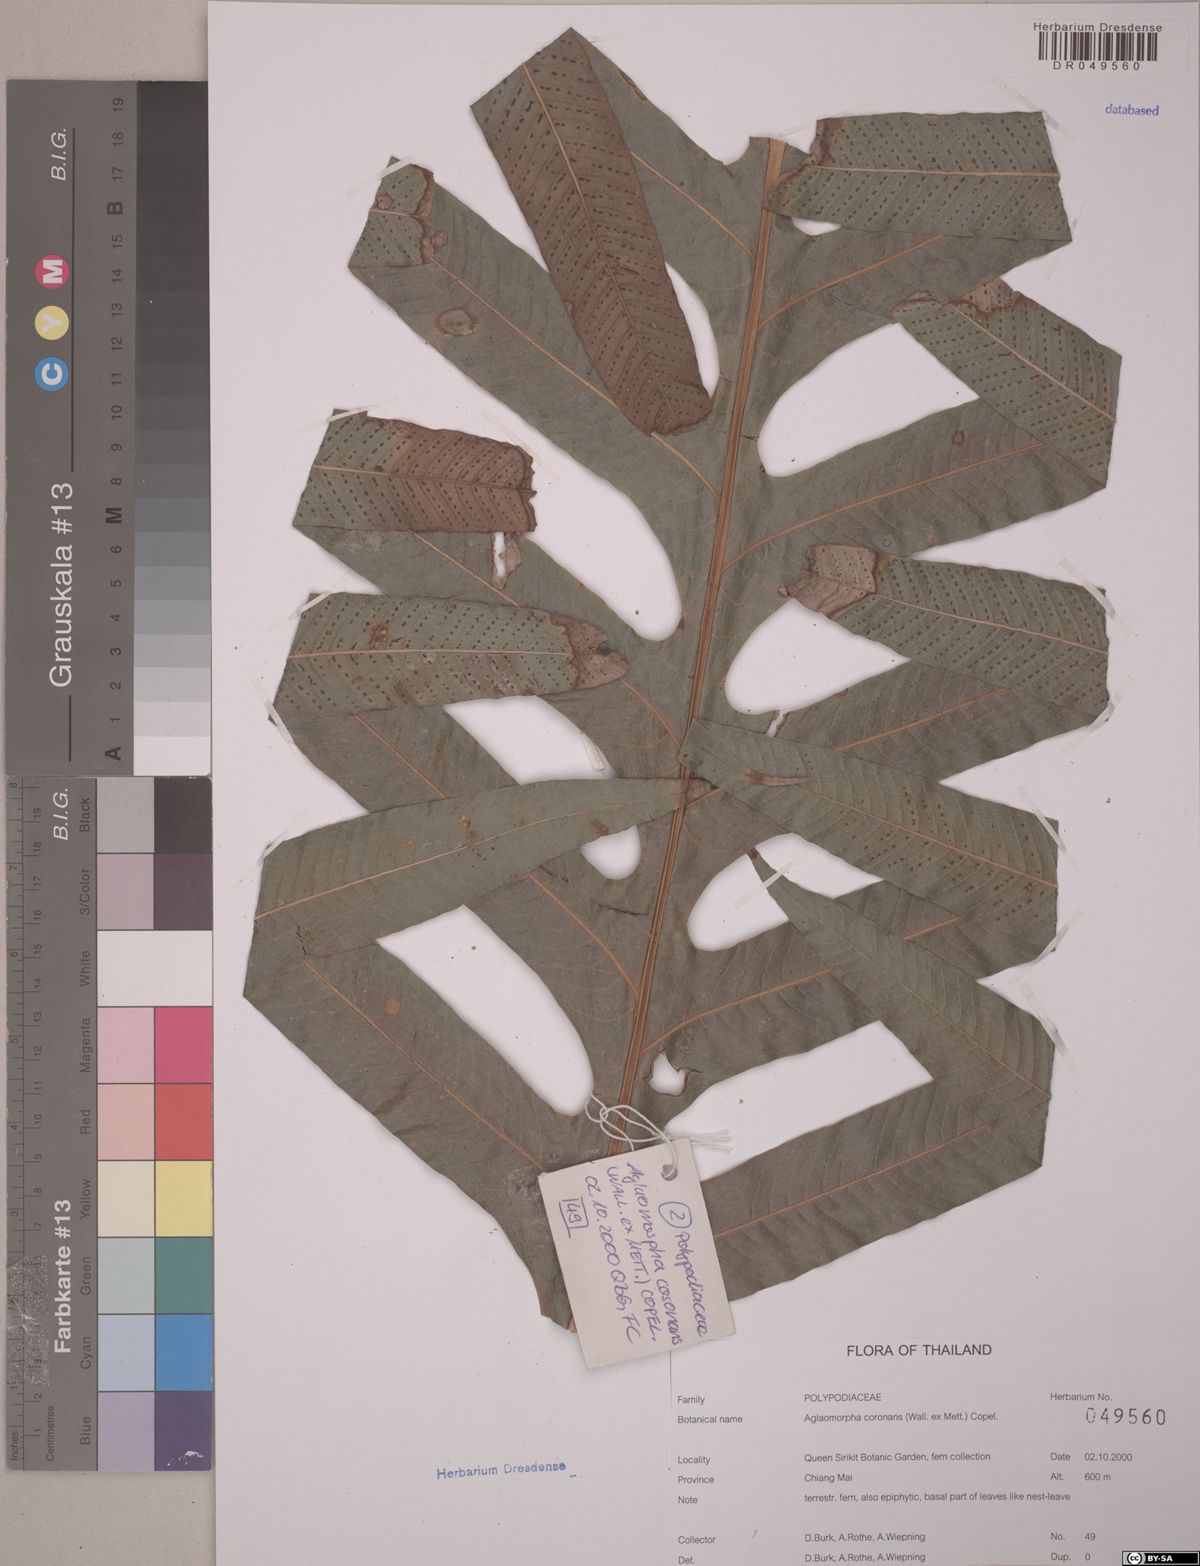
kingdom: Plantae
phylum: Tracheophyta
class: Polypodiopsida
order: Polypodiales
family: Polypodiaceae
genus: Drynaria
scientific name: Drynaria coronans
